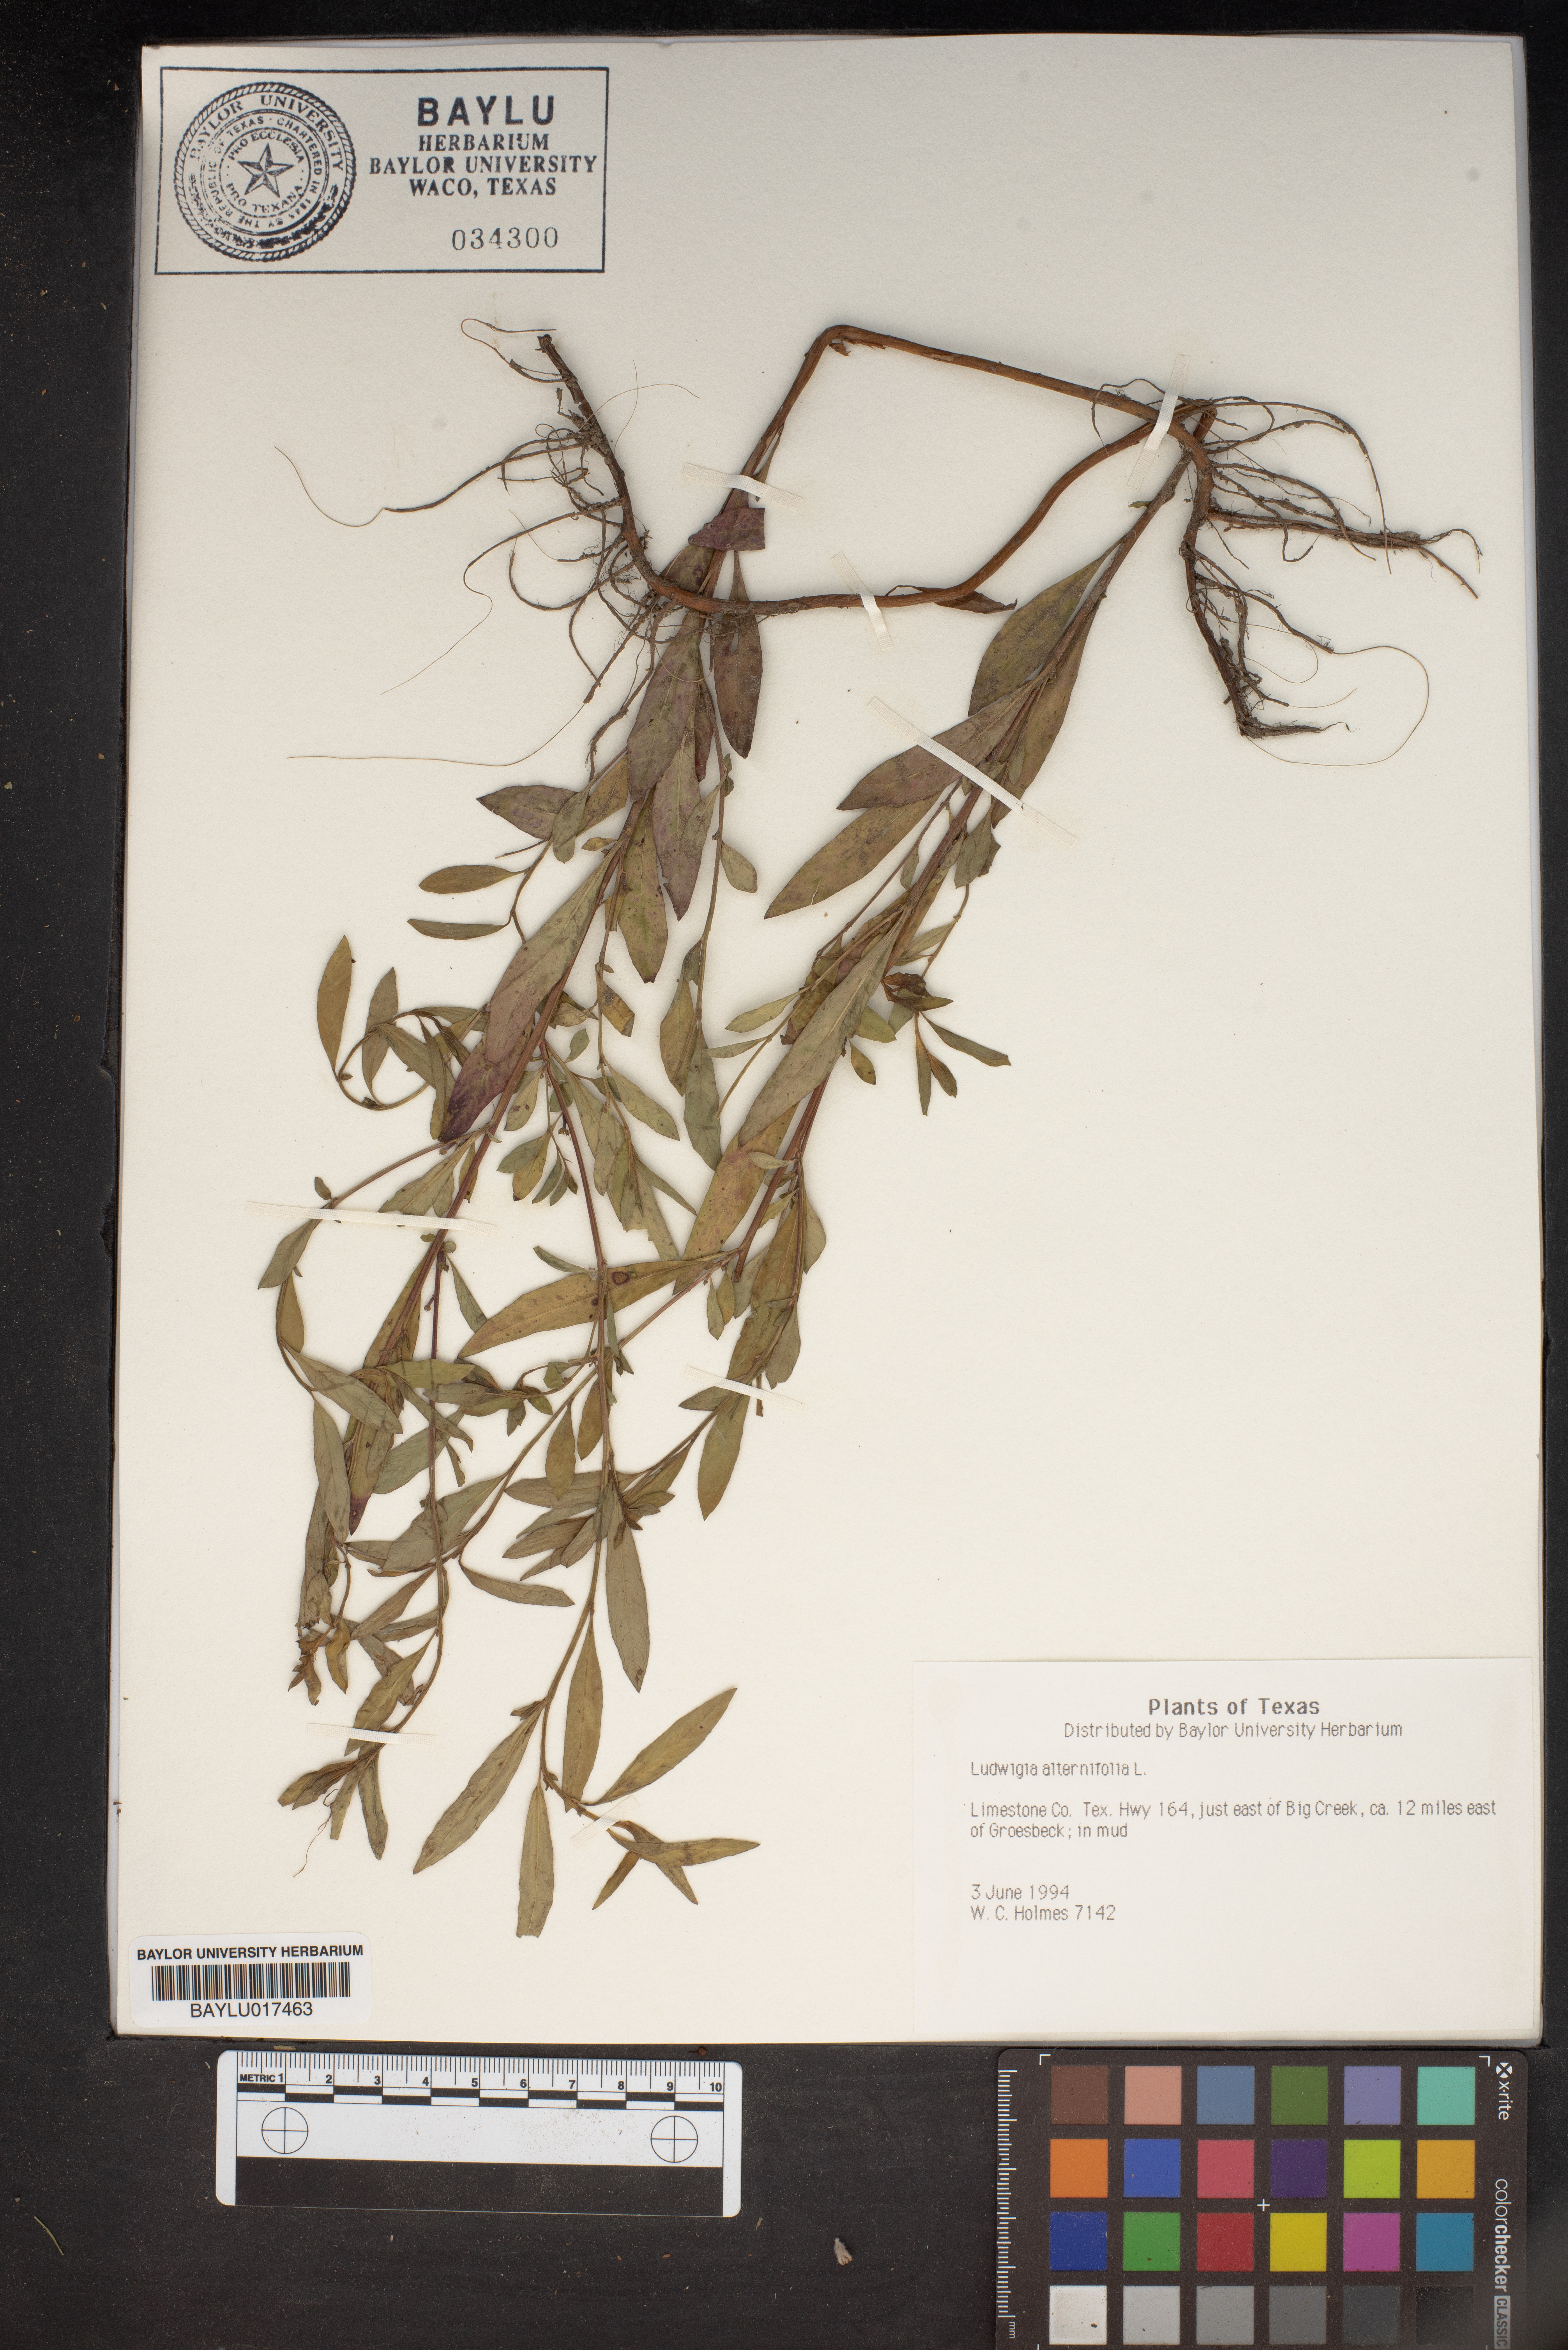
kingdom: Plantae
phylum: Tracheophyta
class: Magnoliopsida
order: Myrtales
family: Onagraceae
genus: Ludwigia
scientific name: Ludwigia alternifolia
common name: Rattlebox
